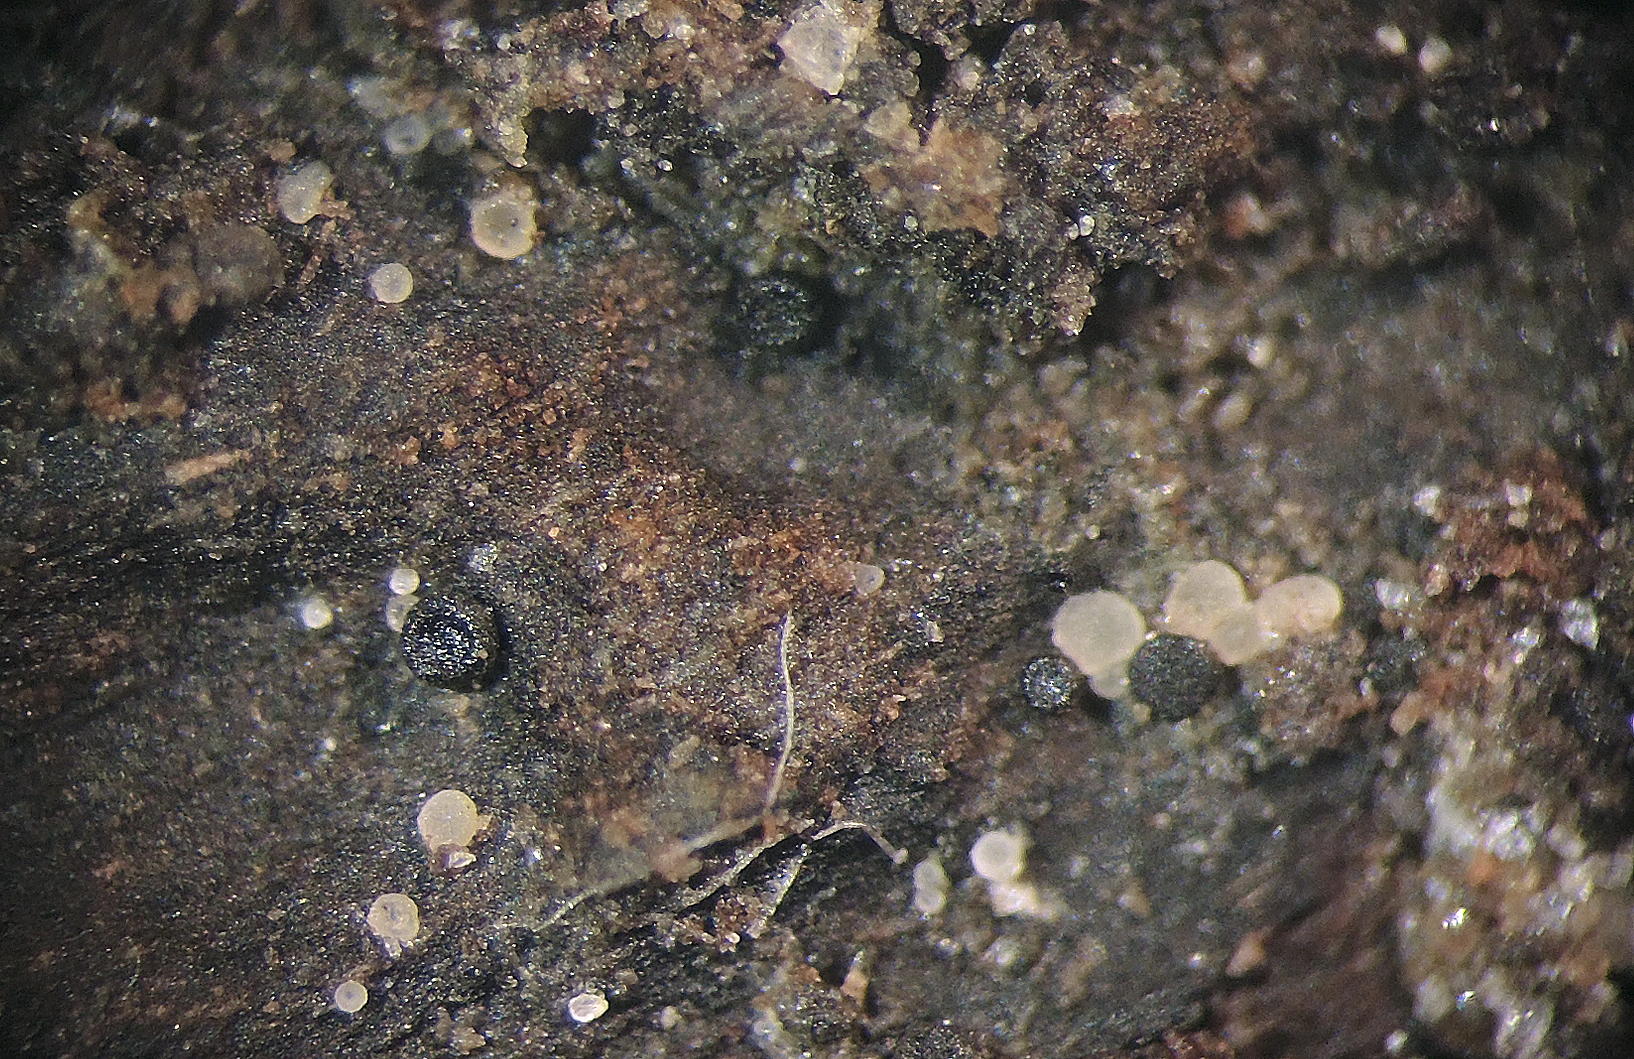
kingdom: Fungi
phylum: Ascomycota
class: Lecanoromycetes
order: Lecanorales
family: Dactylosporaceae
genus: Dactylospora
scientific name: Dactylospora
